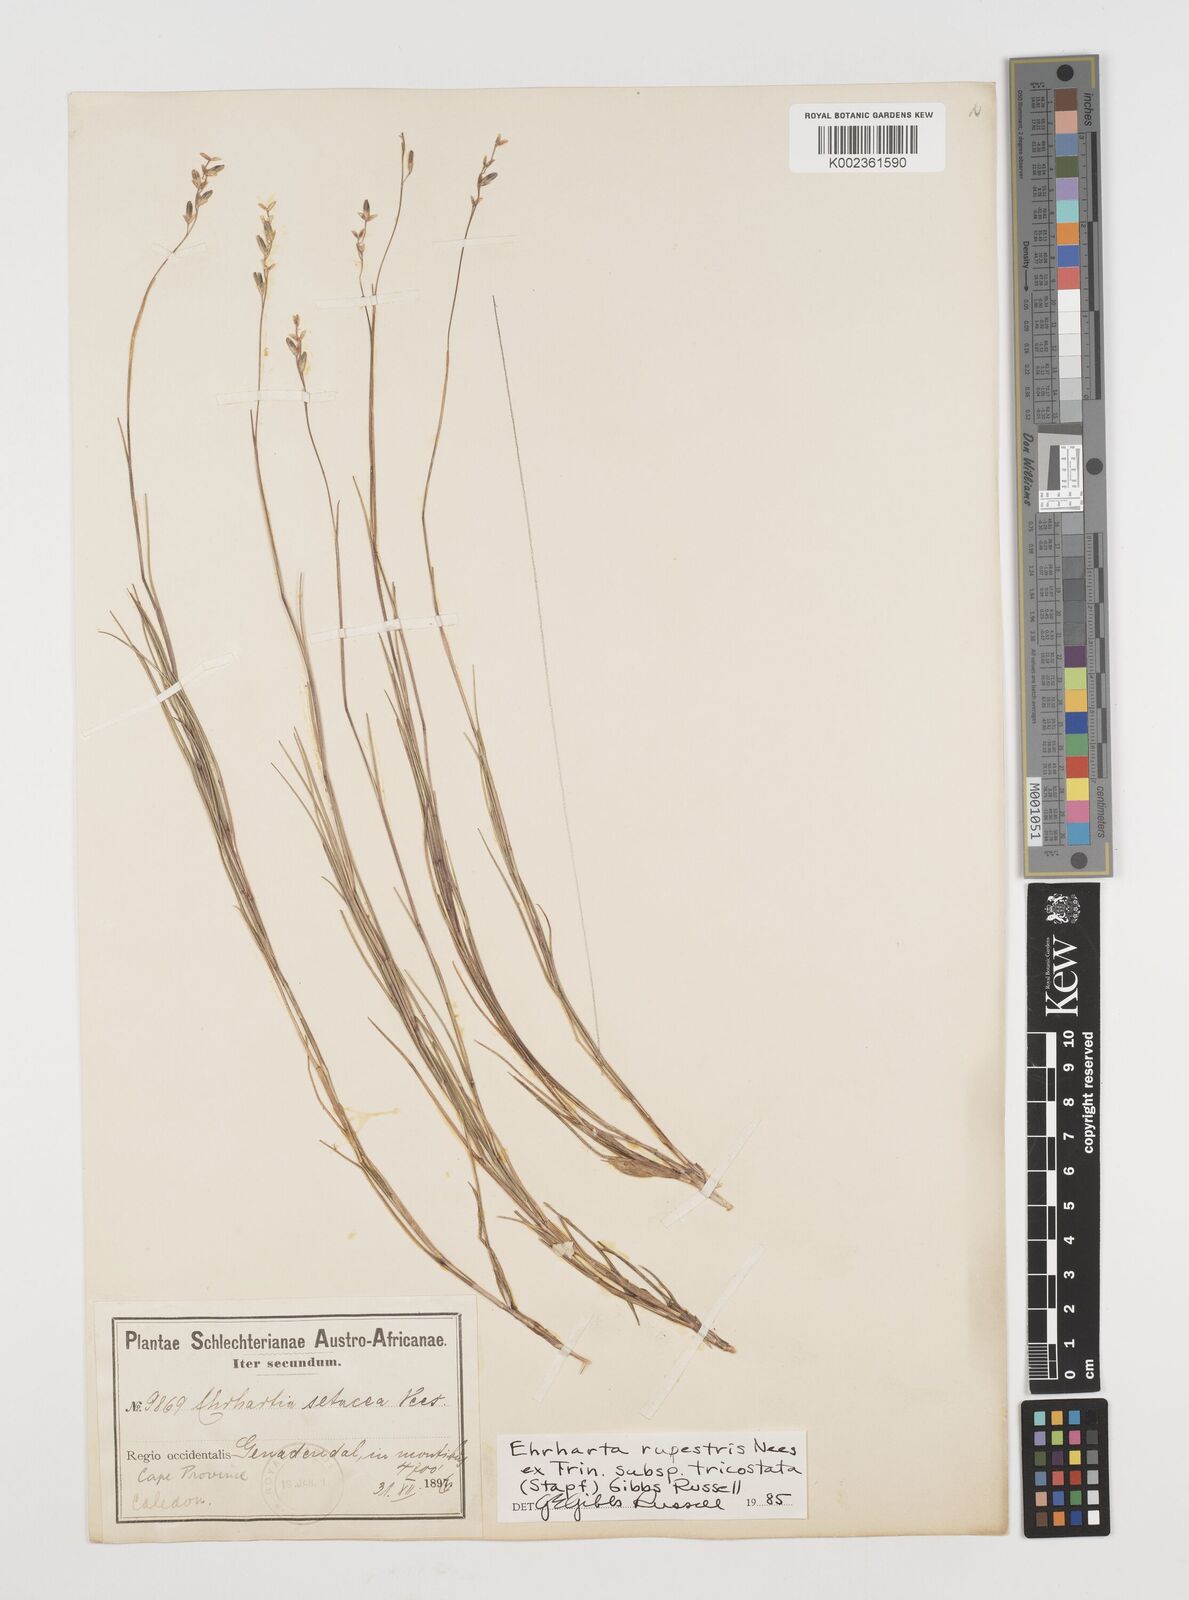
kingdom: Plantae
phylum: Tracheophyta
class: Liliopsida
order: Poales
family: Poaceae
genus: Ehrharta
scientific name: Ehrharta rupestris
